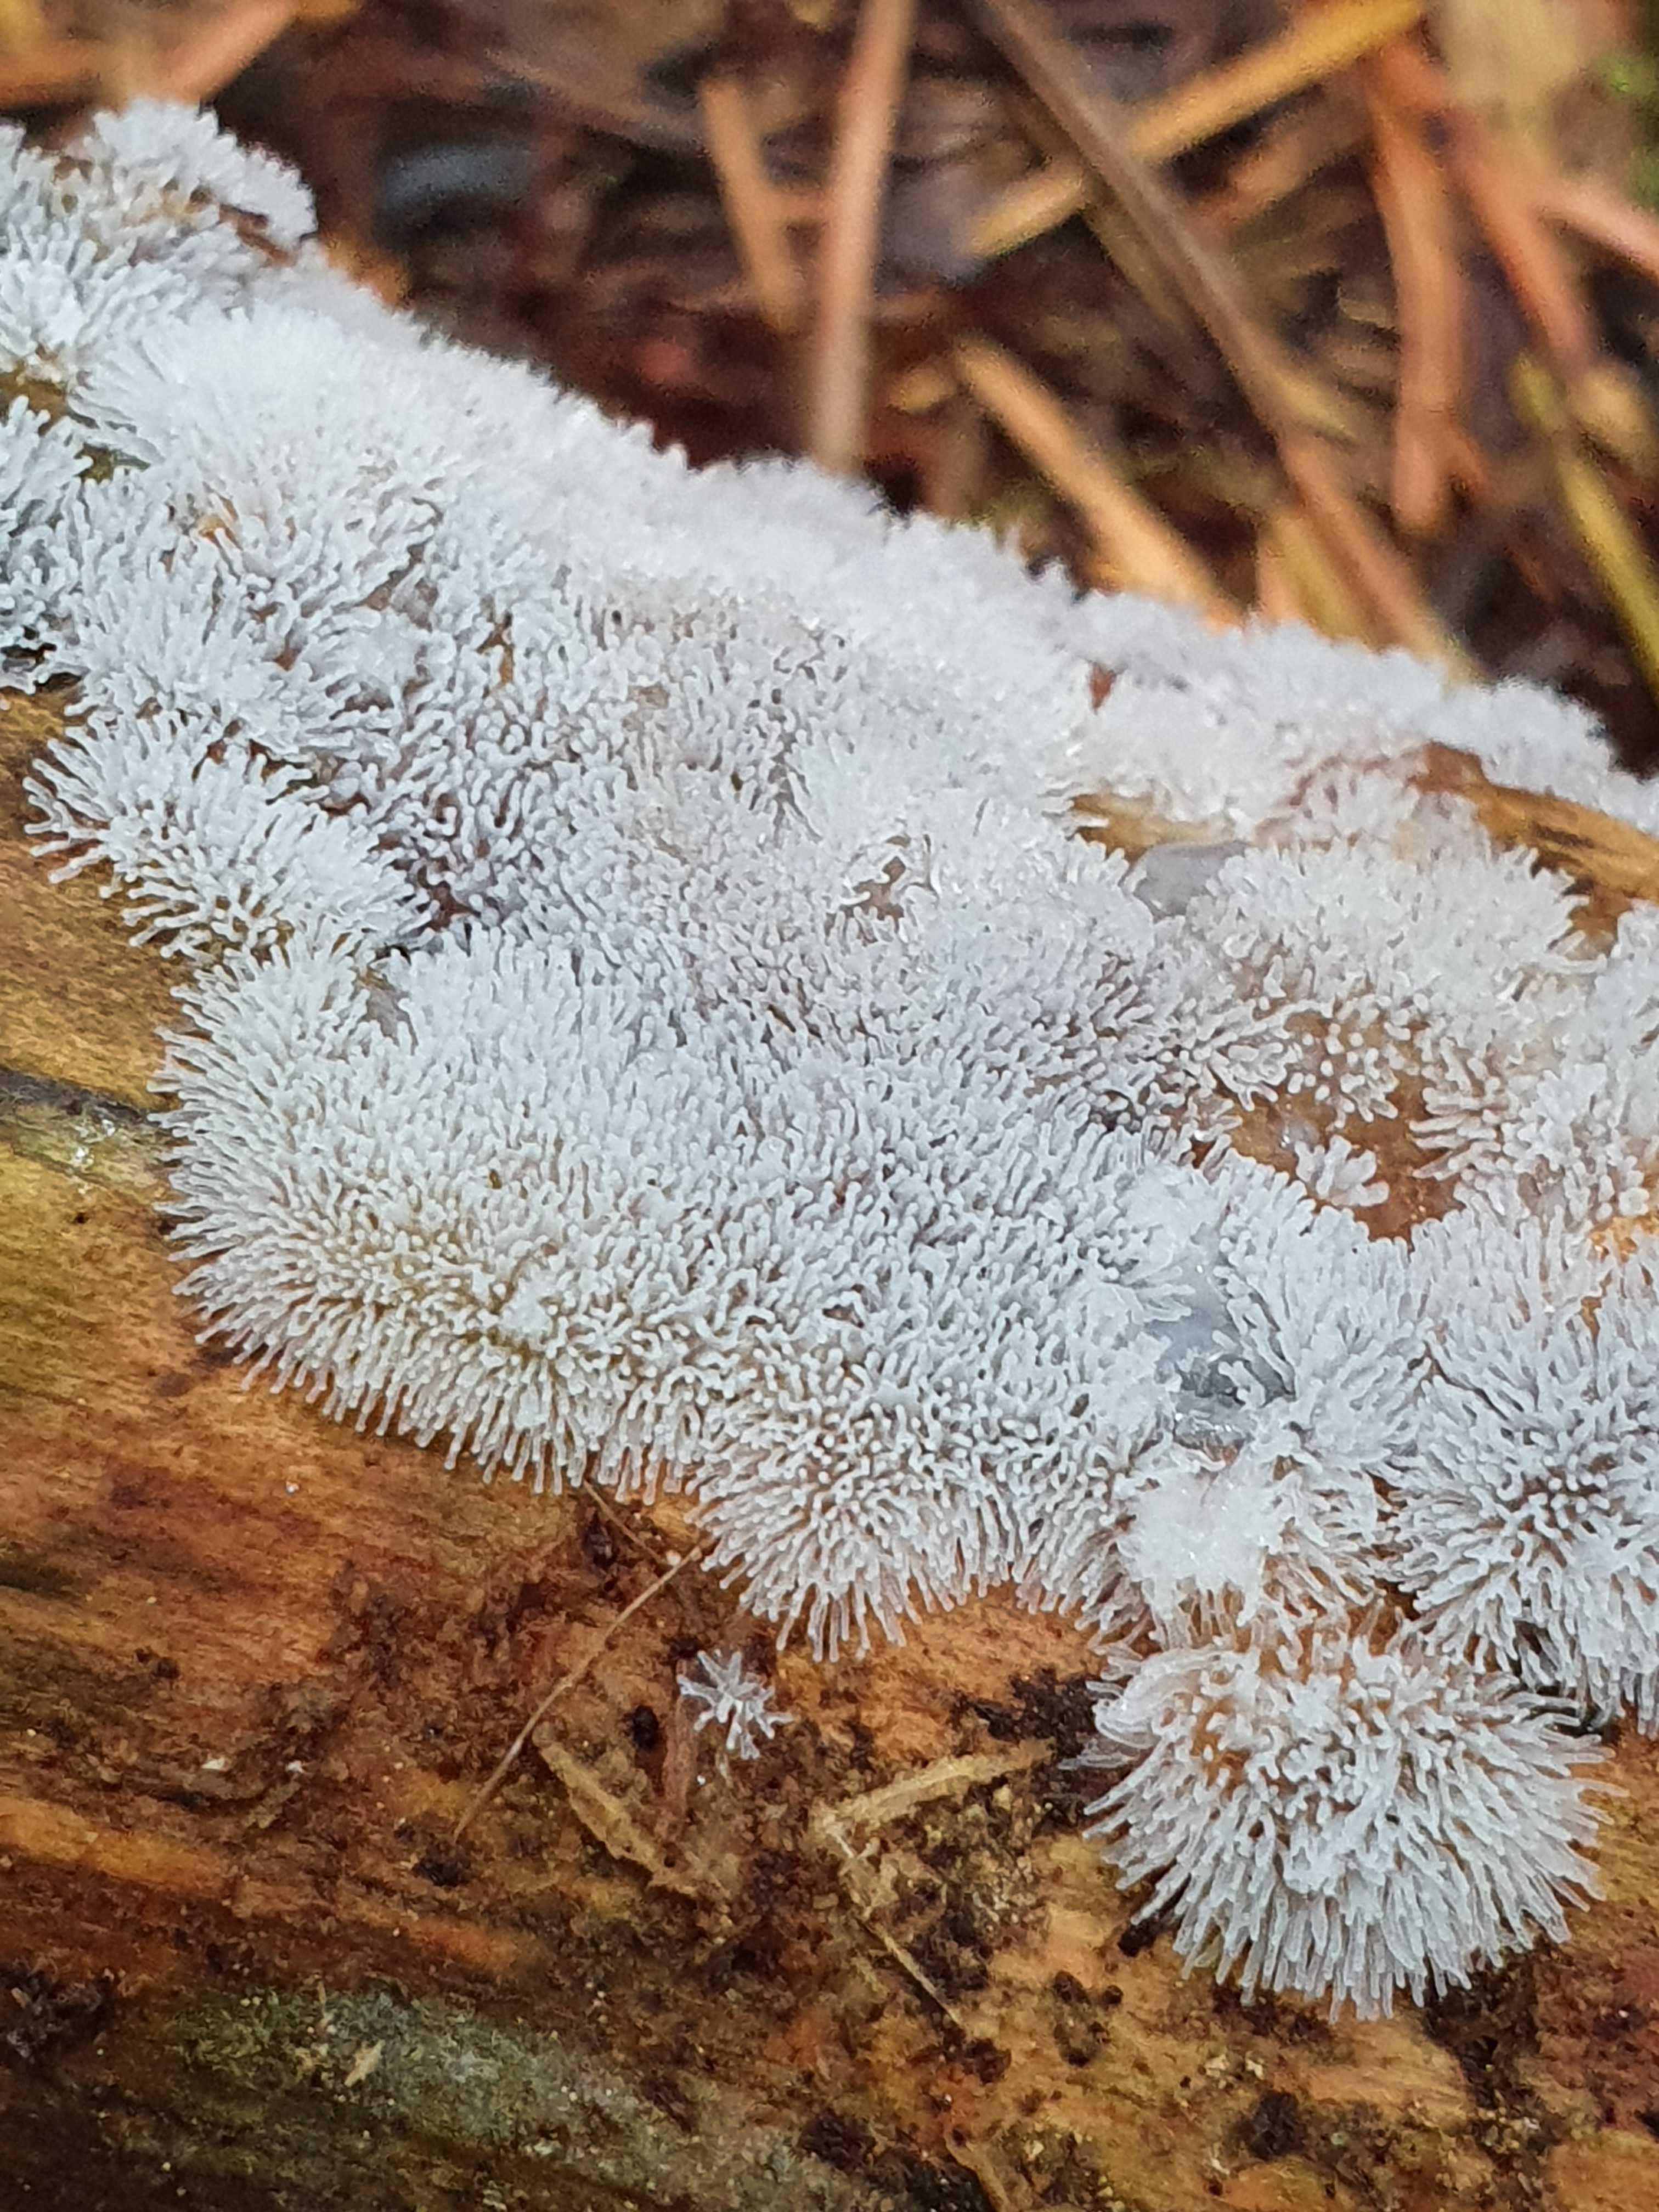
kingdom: Protozoa
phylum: Amoebozoa
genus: Ceratiomyxa
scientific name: Ceratiomyxa
